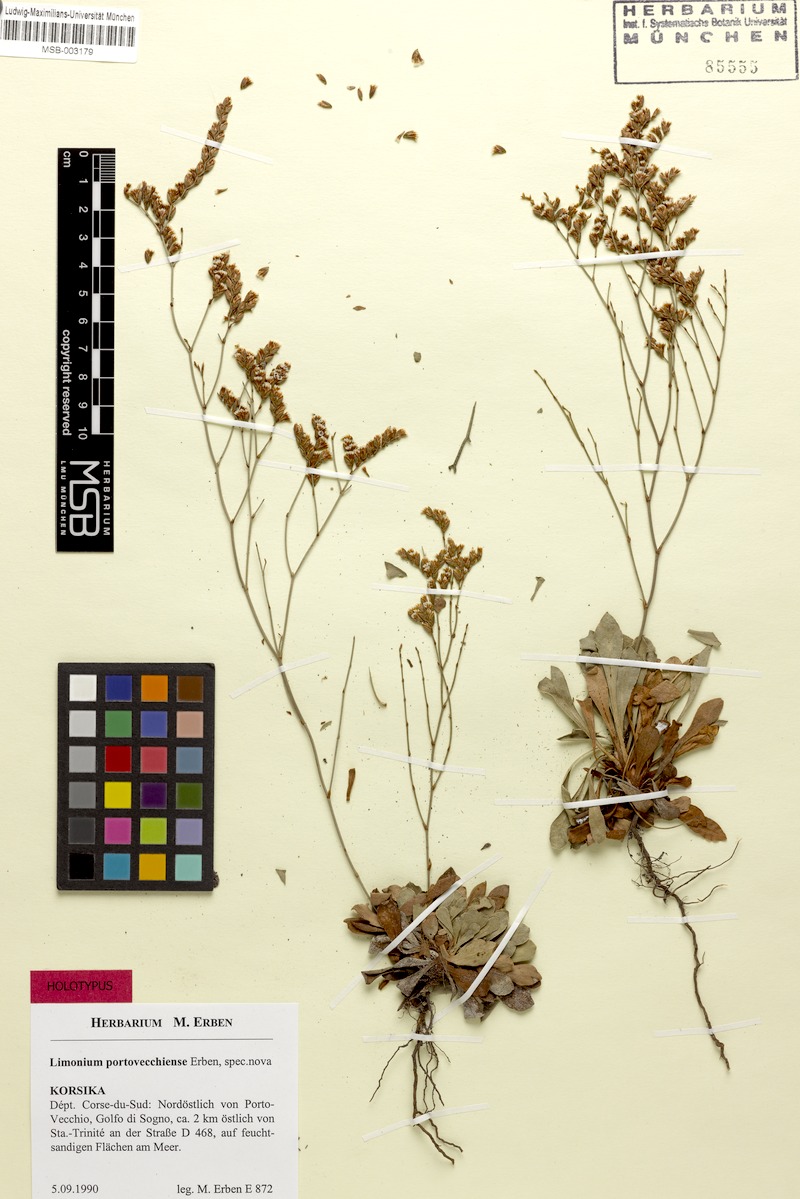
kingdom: Plantae
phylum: Tracheophyta
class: Magnoliopsida
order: Caryophyllales
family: Plumbaginaceae
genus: Limonium
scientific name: Limonium portovecchiense
